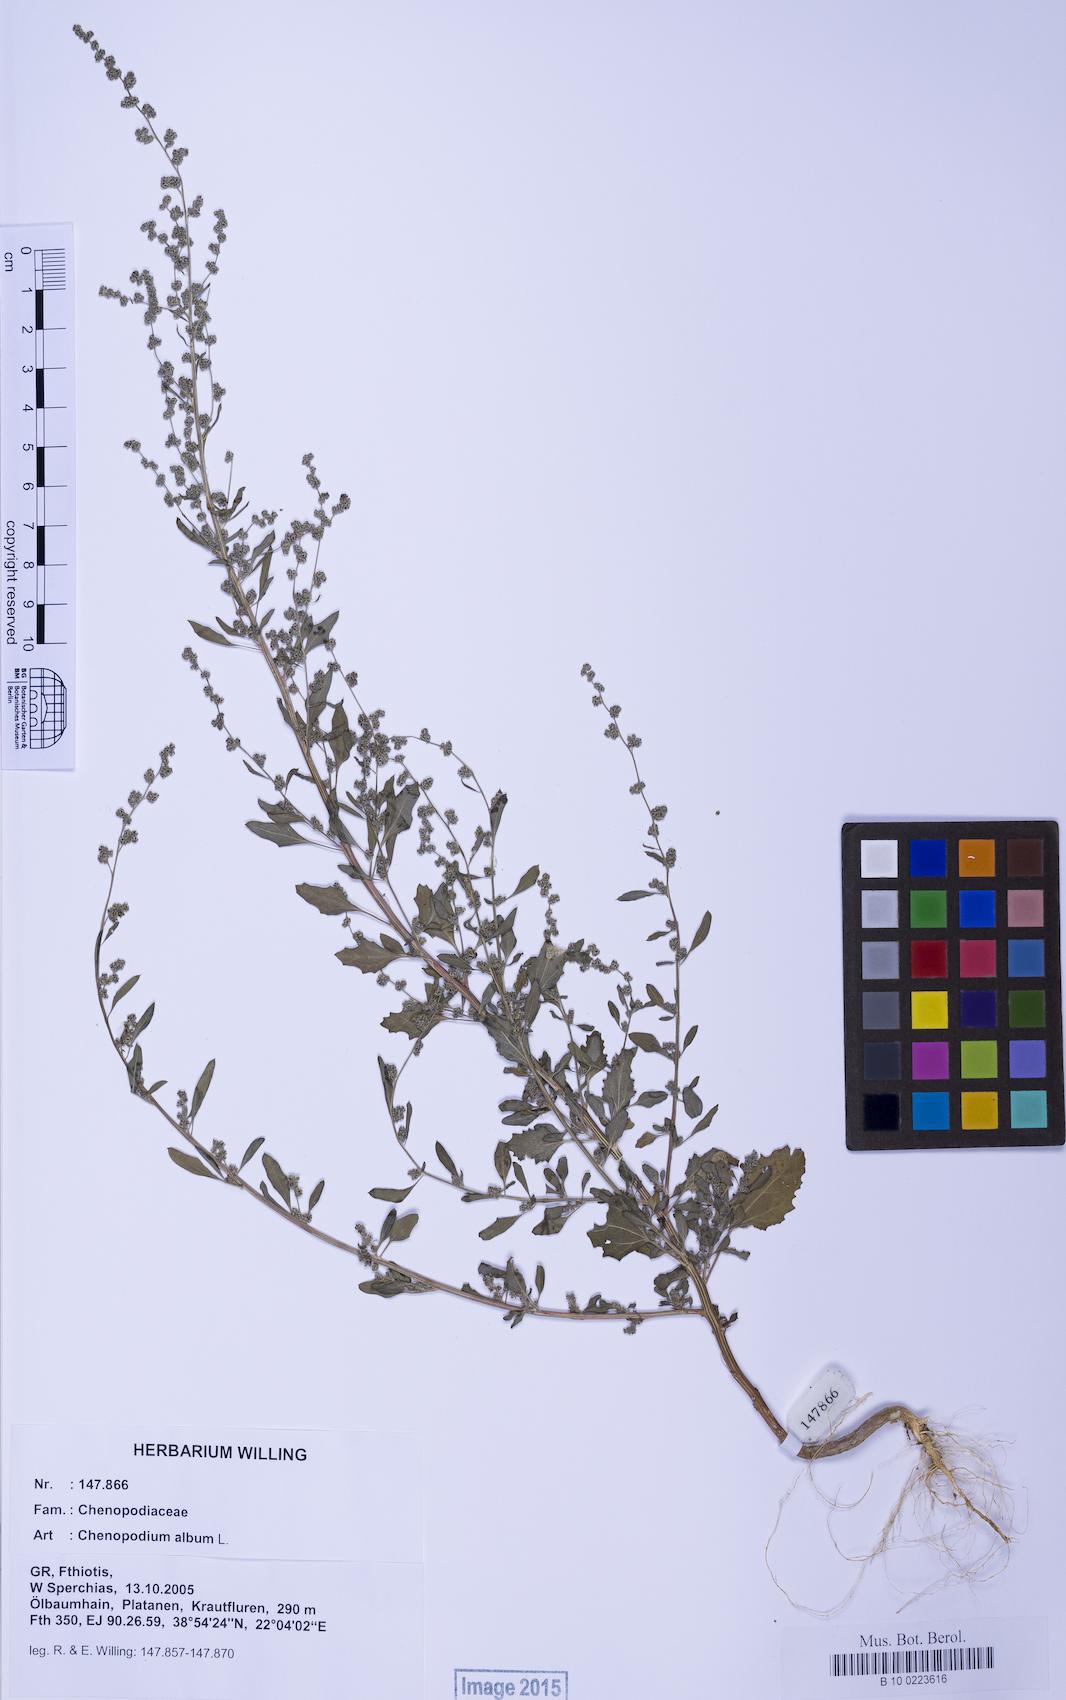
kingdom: Plantae
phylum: Tracheophyta
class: Magnoliopsida
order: Caryophyllales
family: Amaranthaceae
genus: Chenopodium
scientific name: Chenopodium album
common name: Fat-hen
